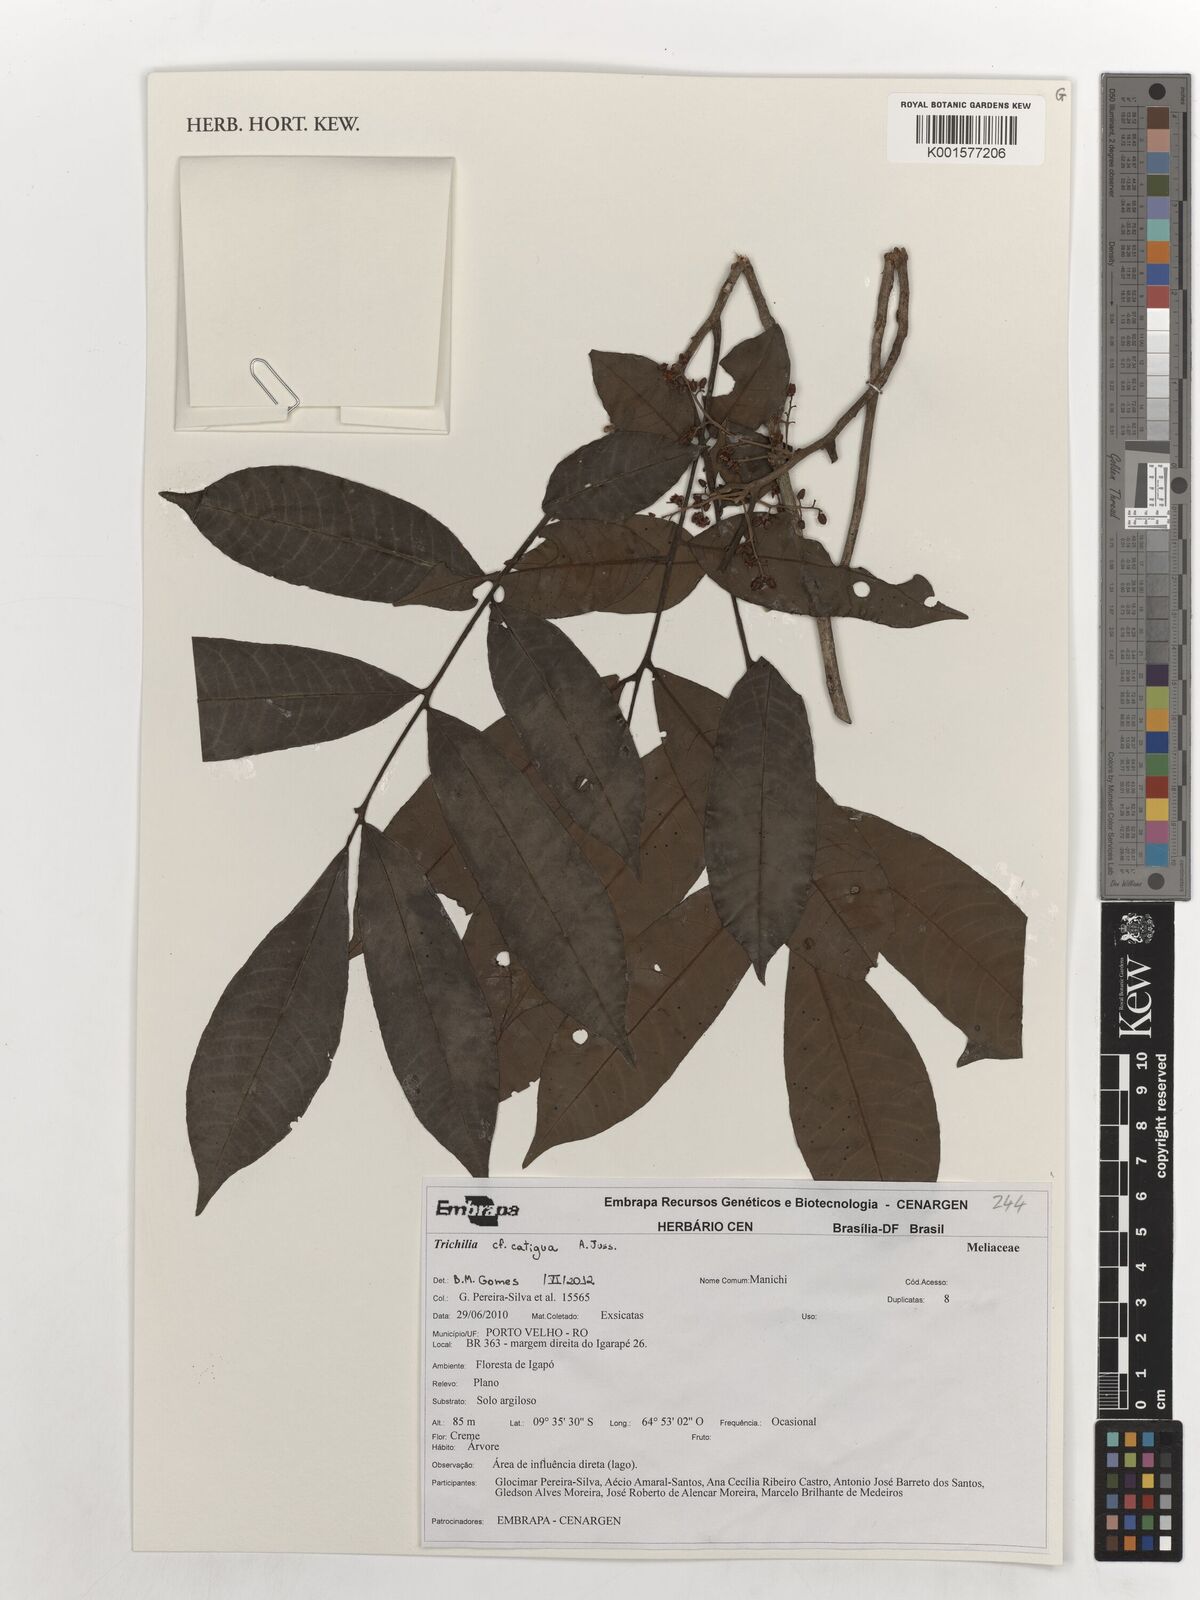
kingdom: Plantae
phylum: Tracheophyta
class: Magnoliopsida
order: Sapindales
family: Meliaceae
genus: Trichilia
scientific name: Trichilia catigua
